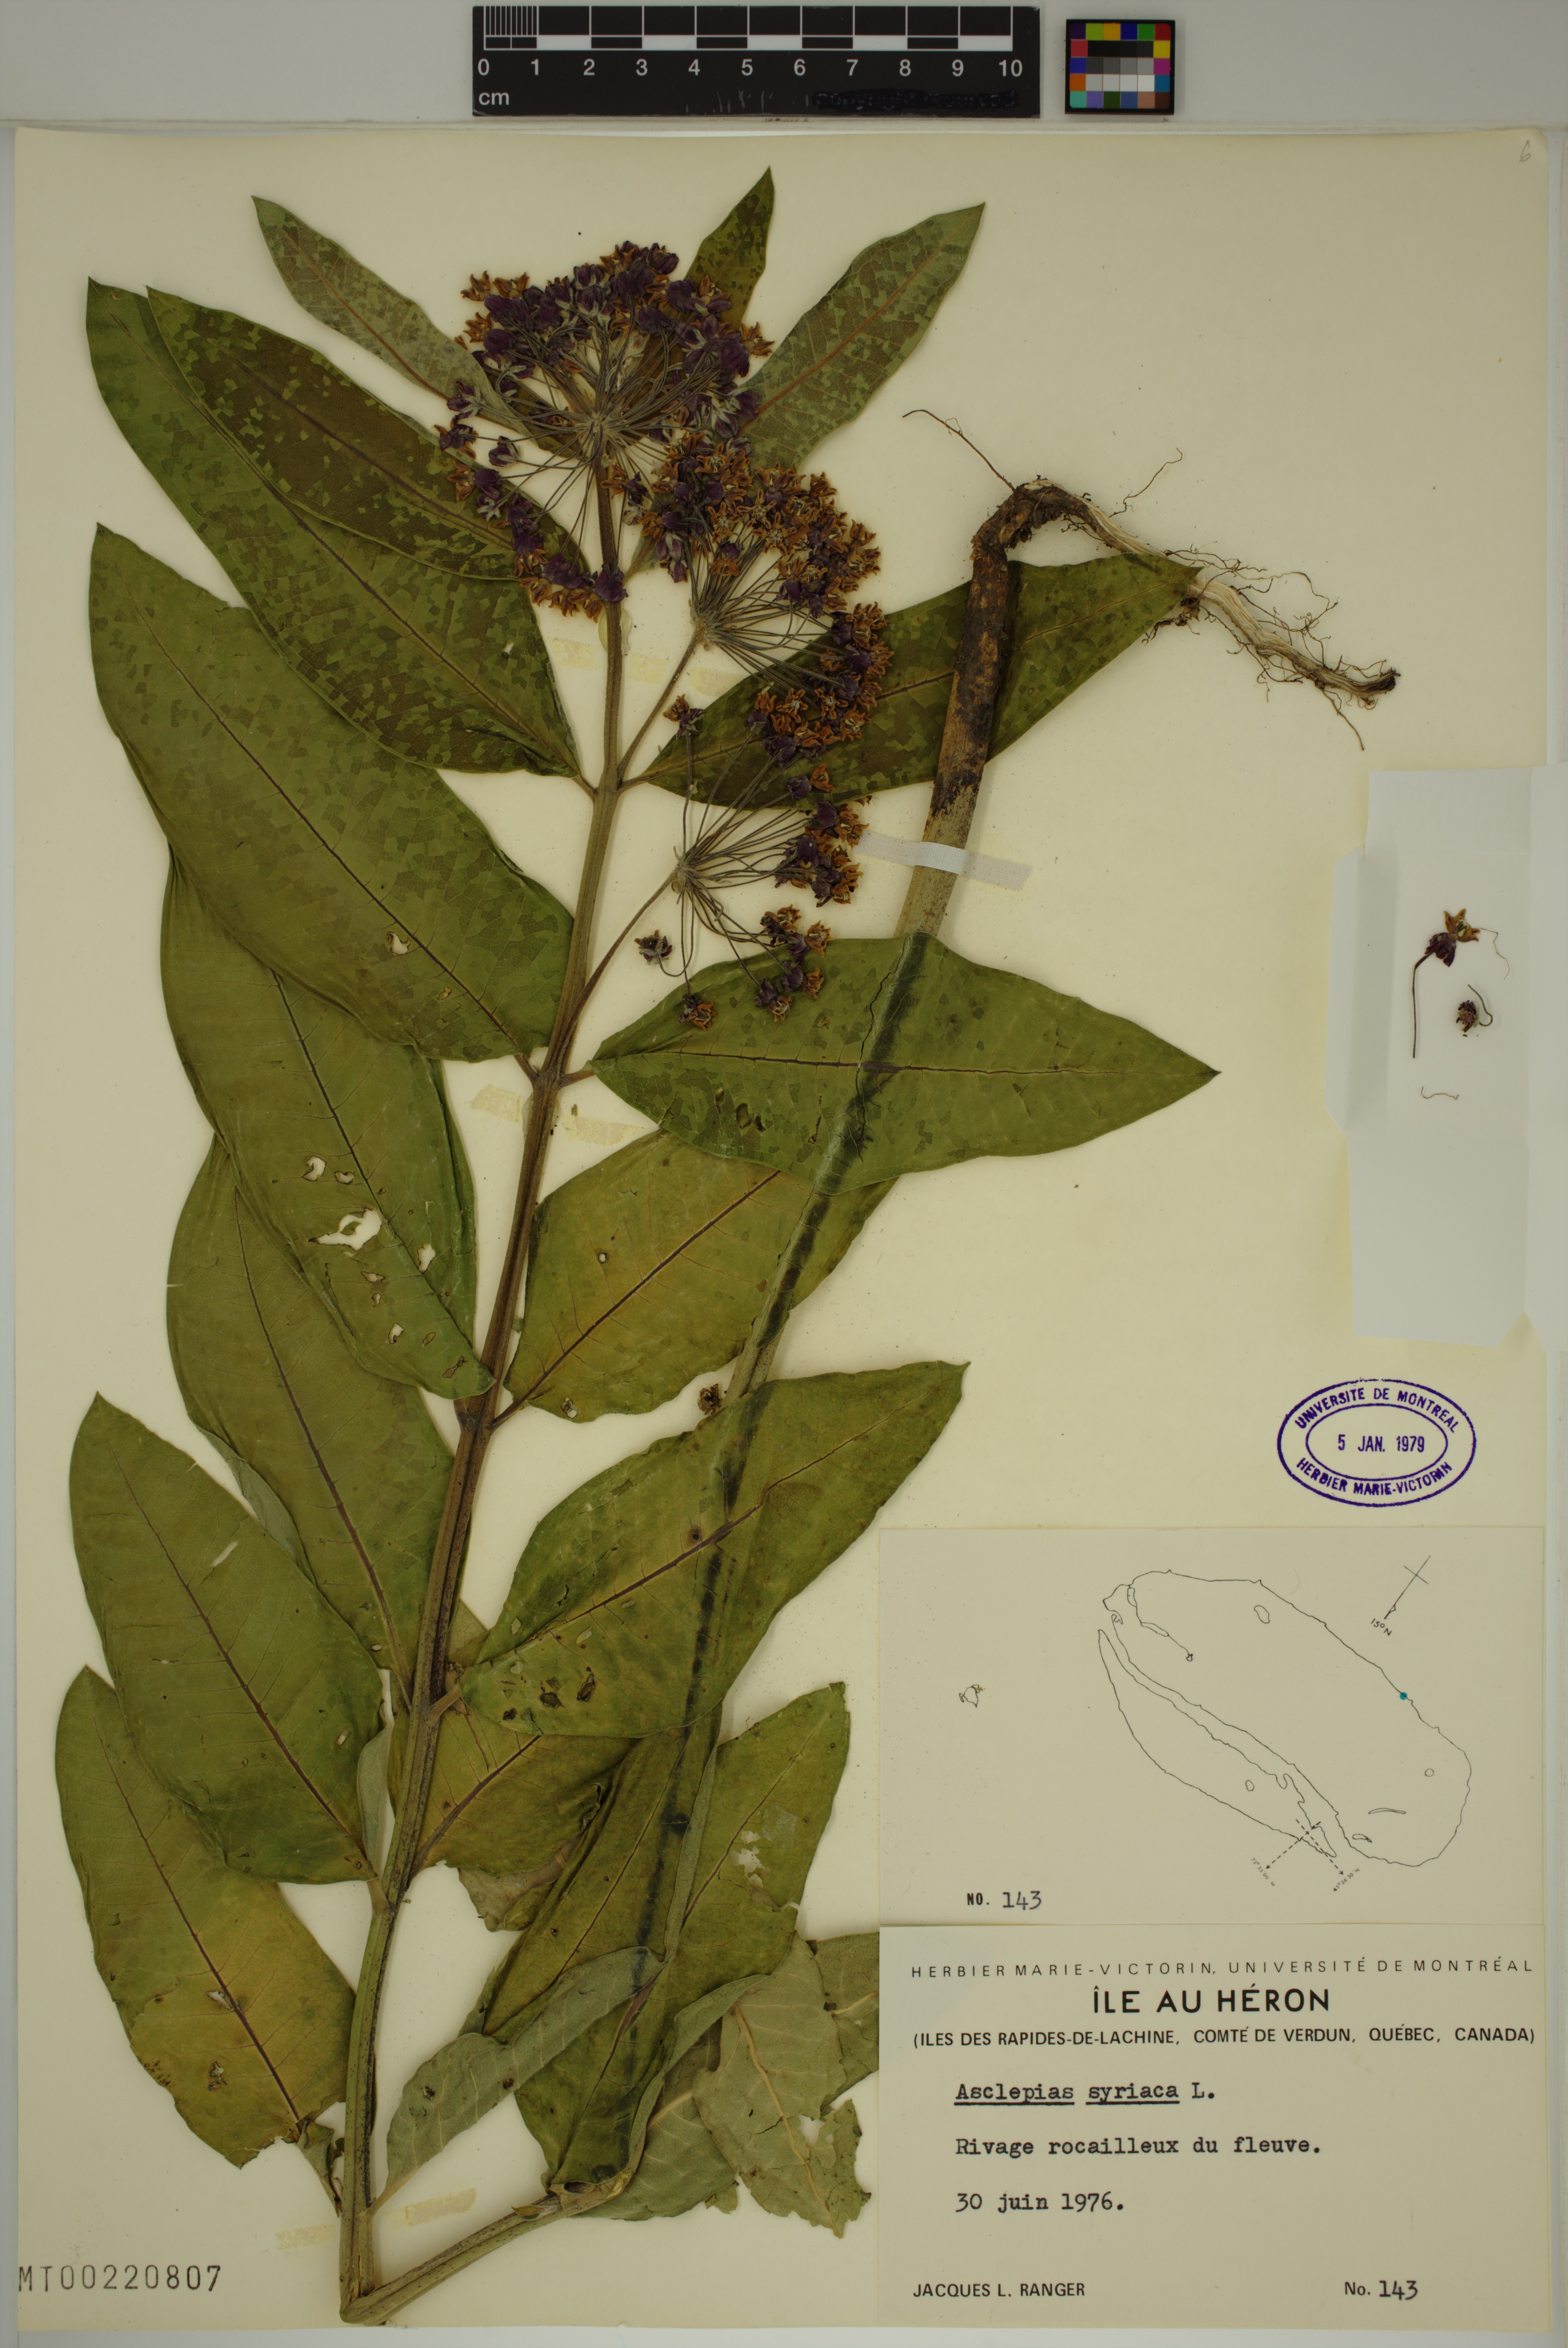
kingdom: Plantae
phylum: Tracheophyta
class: Magnoliopsida
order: Gentianales
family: Apocynaceae
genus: Asclepias
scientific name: Asclepias syriaca
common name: Common milkweed
